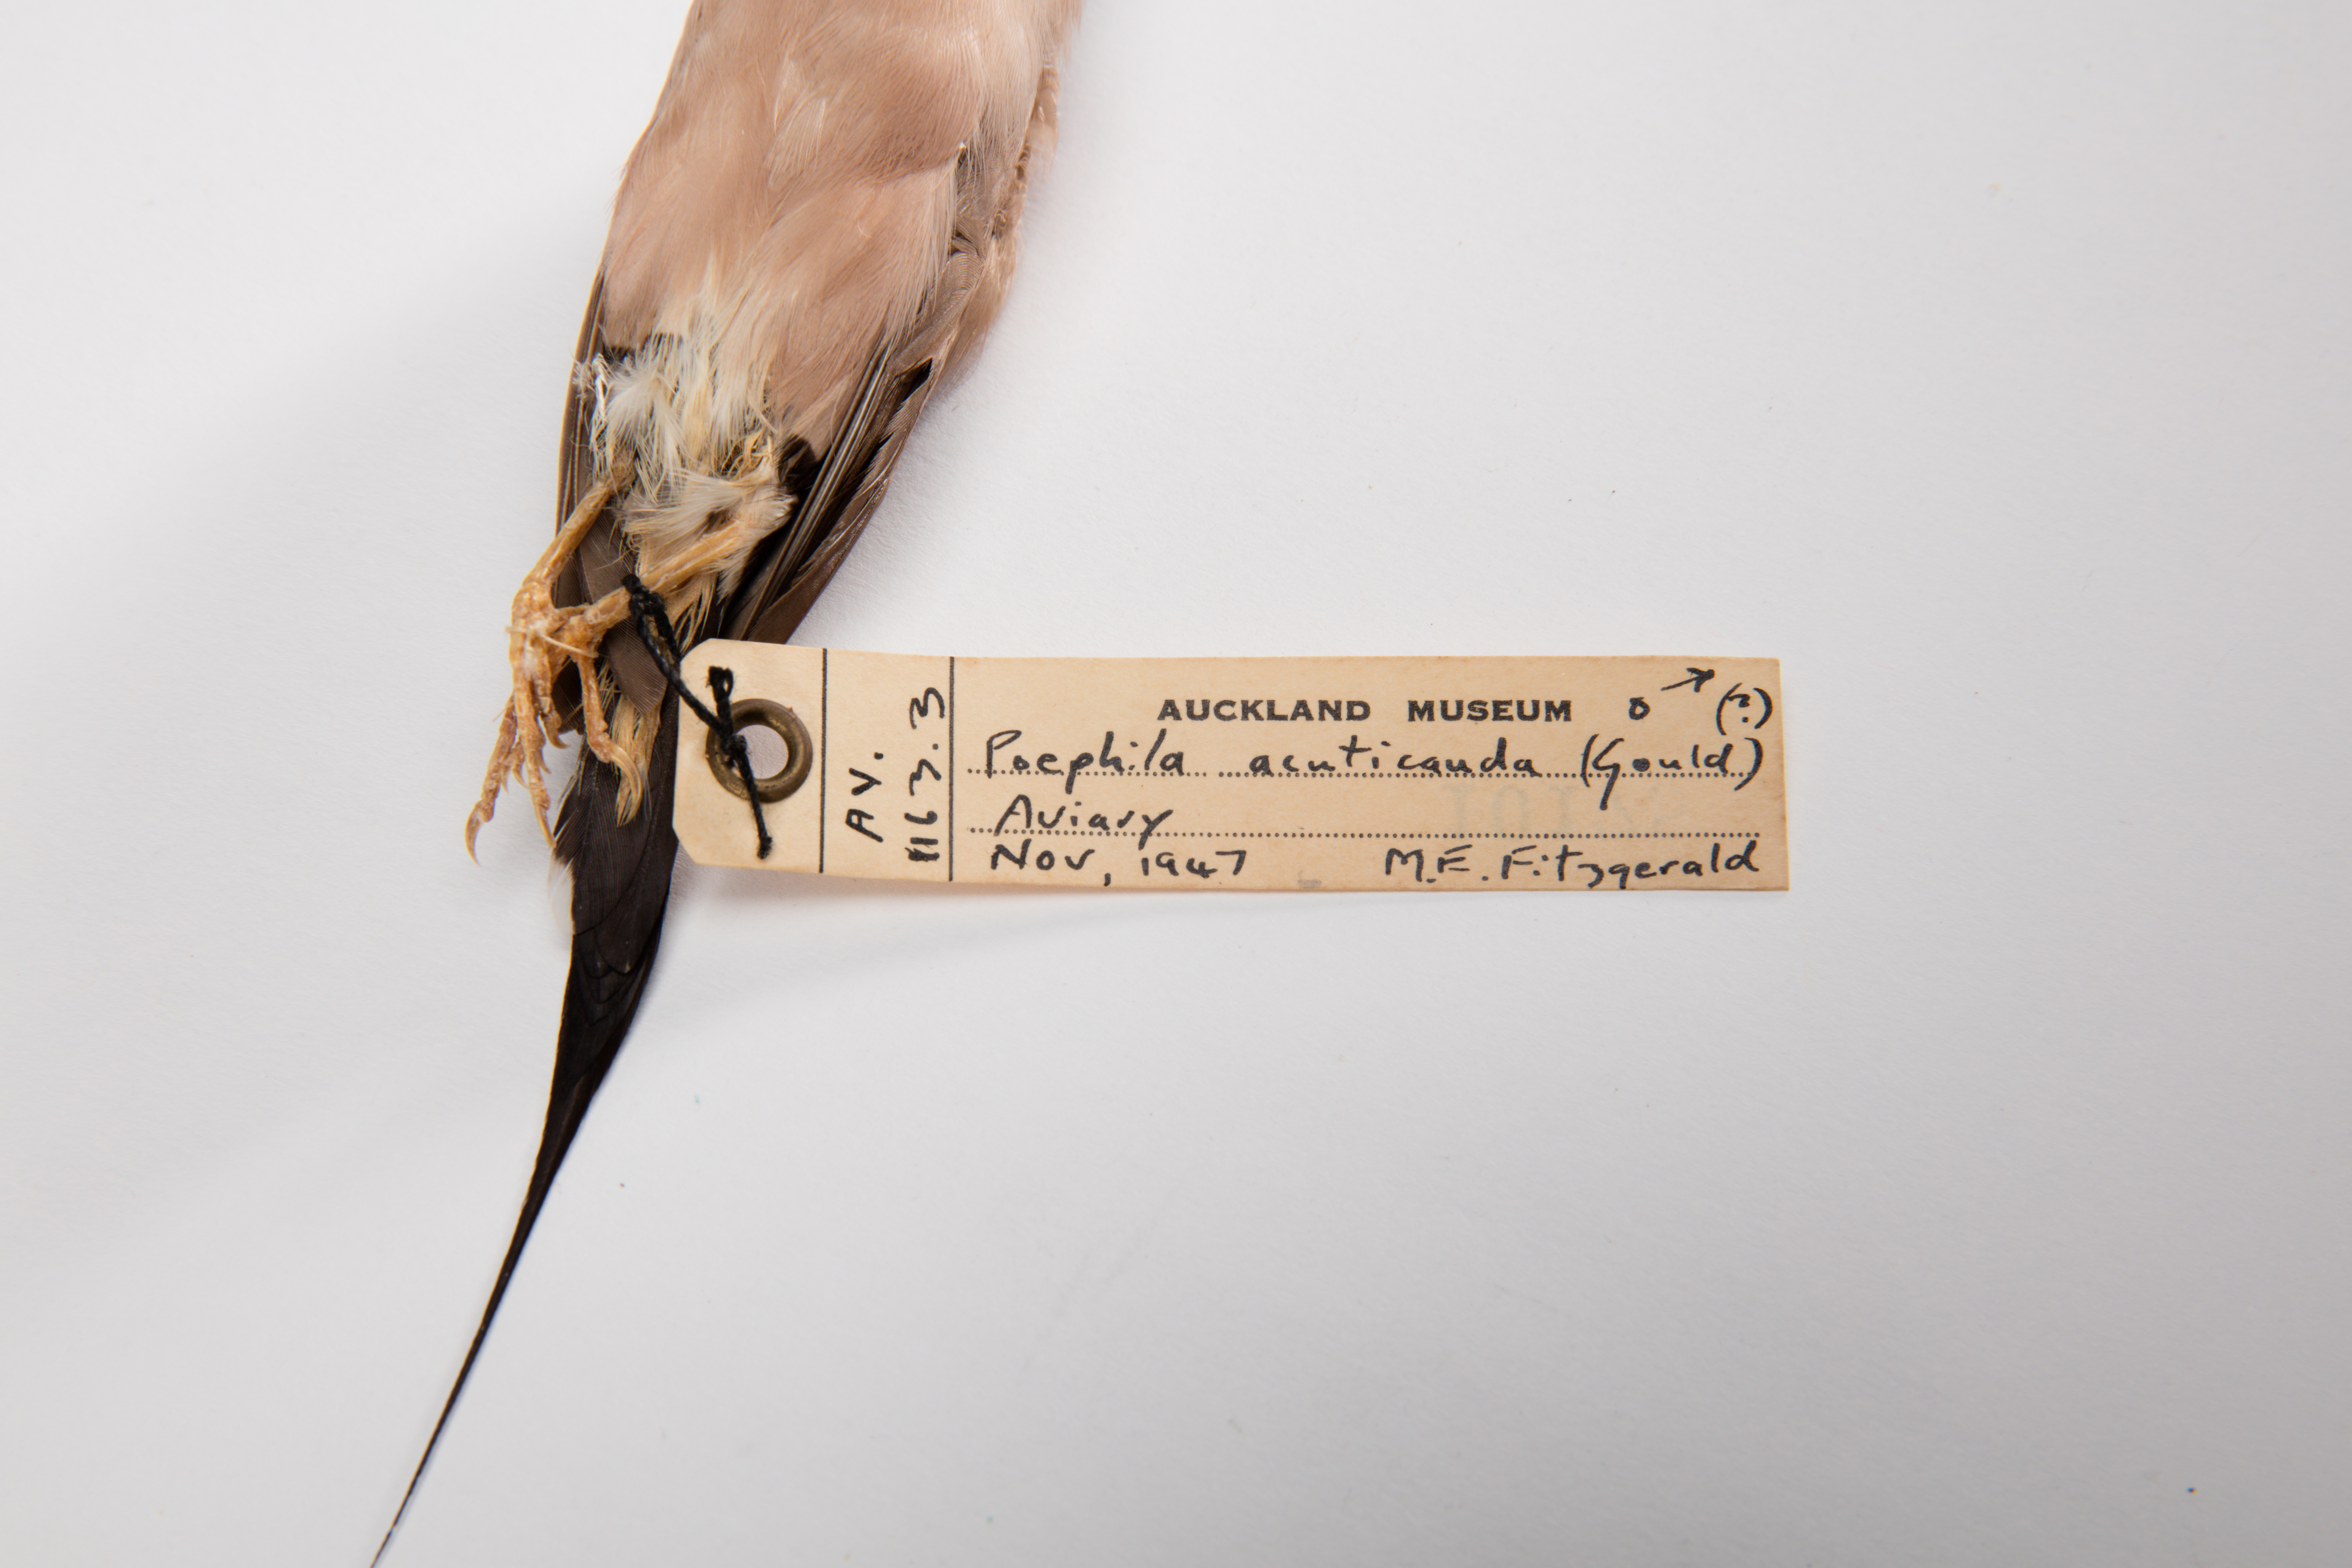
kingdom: Animalia
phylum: Chordata
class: Aves
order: Passeriformes
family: Estrildidae
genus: Poephila
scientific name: Poephila acuticauda
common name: Long-tailed finch
